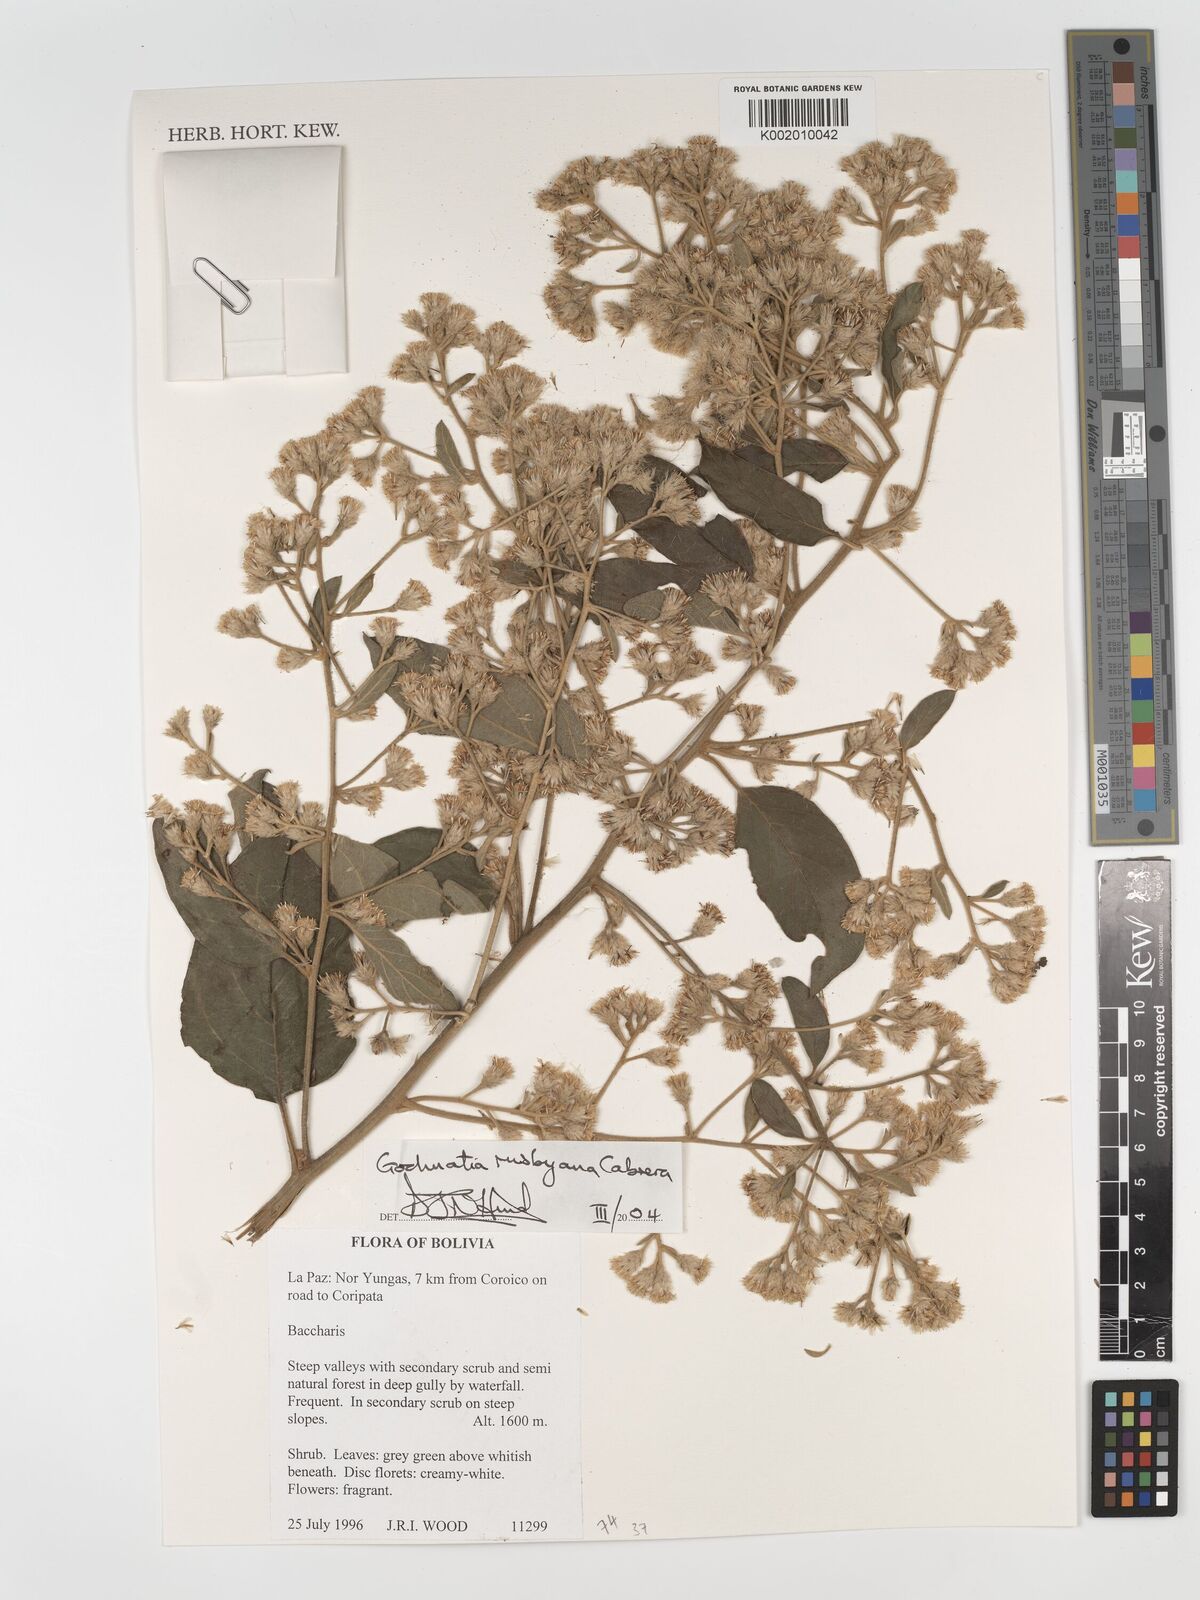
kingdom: Plantae
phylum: Tracheophyta
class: Magnoliopsida
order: Asterales
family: Asteraceae
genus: Moquiniastrum
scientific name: Moquiniastrum bolivianum
